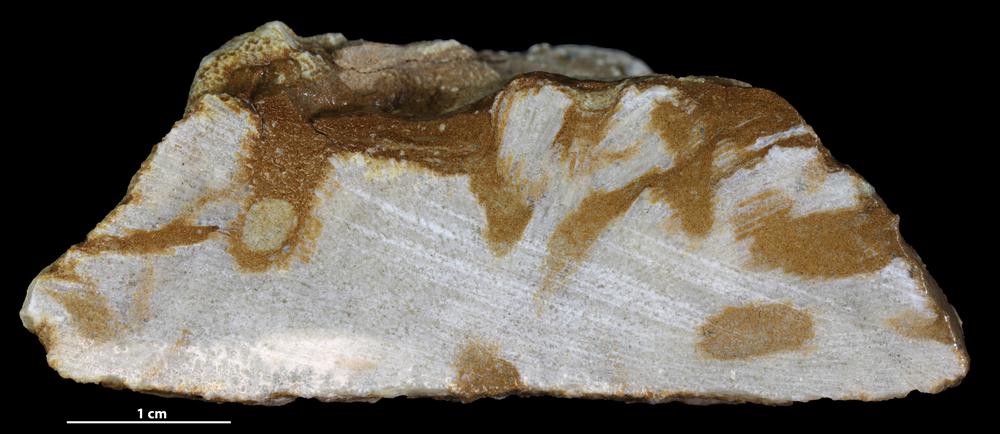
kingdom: Animalia
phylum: Bryozoa
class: Stenolaemata
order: Trepostomatida
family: Diplotrypidae
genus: Diplotrypa
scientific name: Diplotrypa petropolitana
